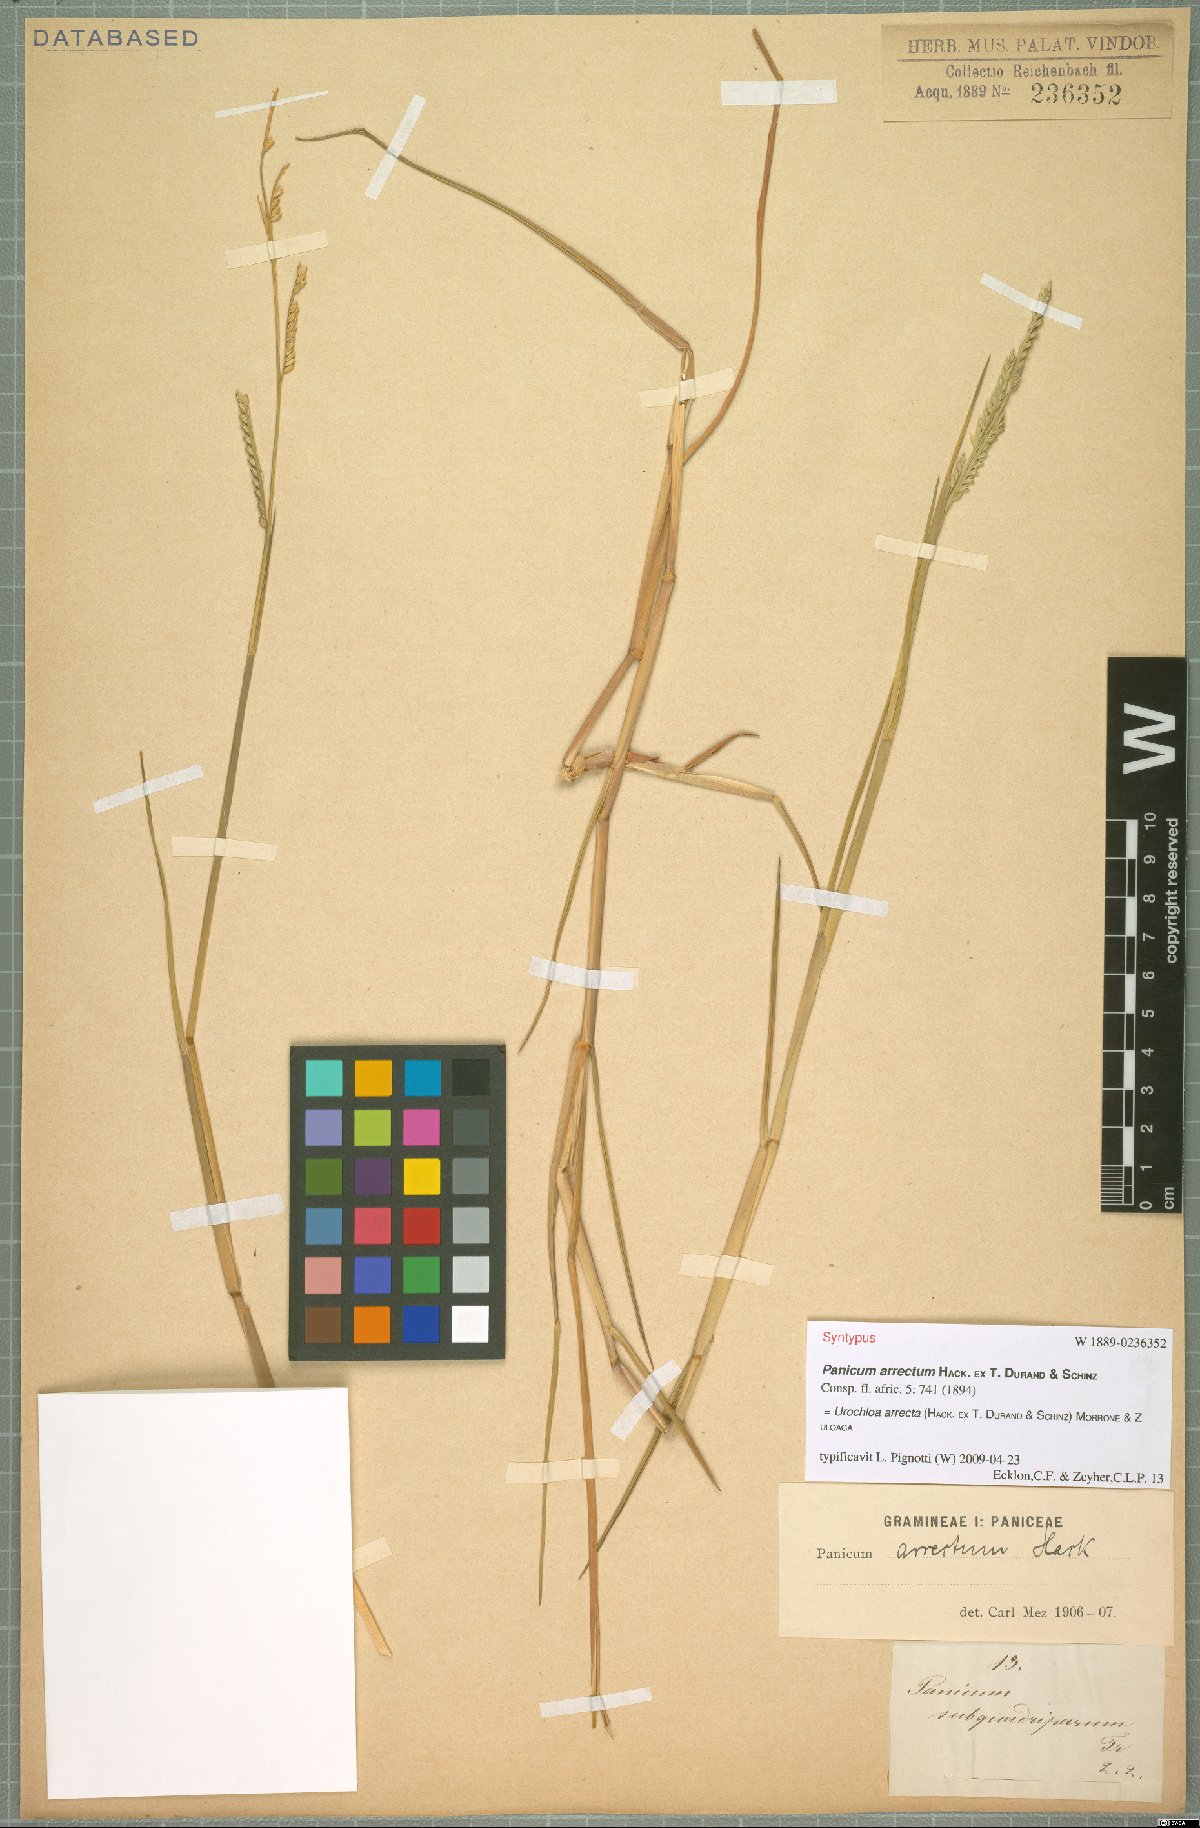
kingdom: Plantae
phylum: Tracheophyta
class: Liliopsida
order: Poales
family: Poaceae
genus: Urochloa
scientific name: Urochloa arrecta
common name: African signalgrass
